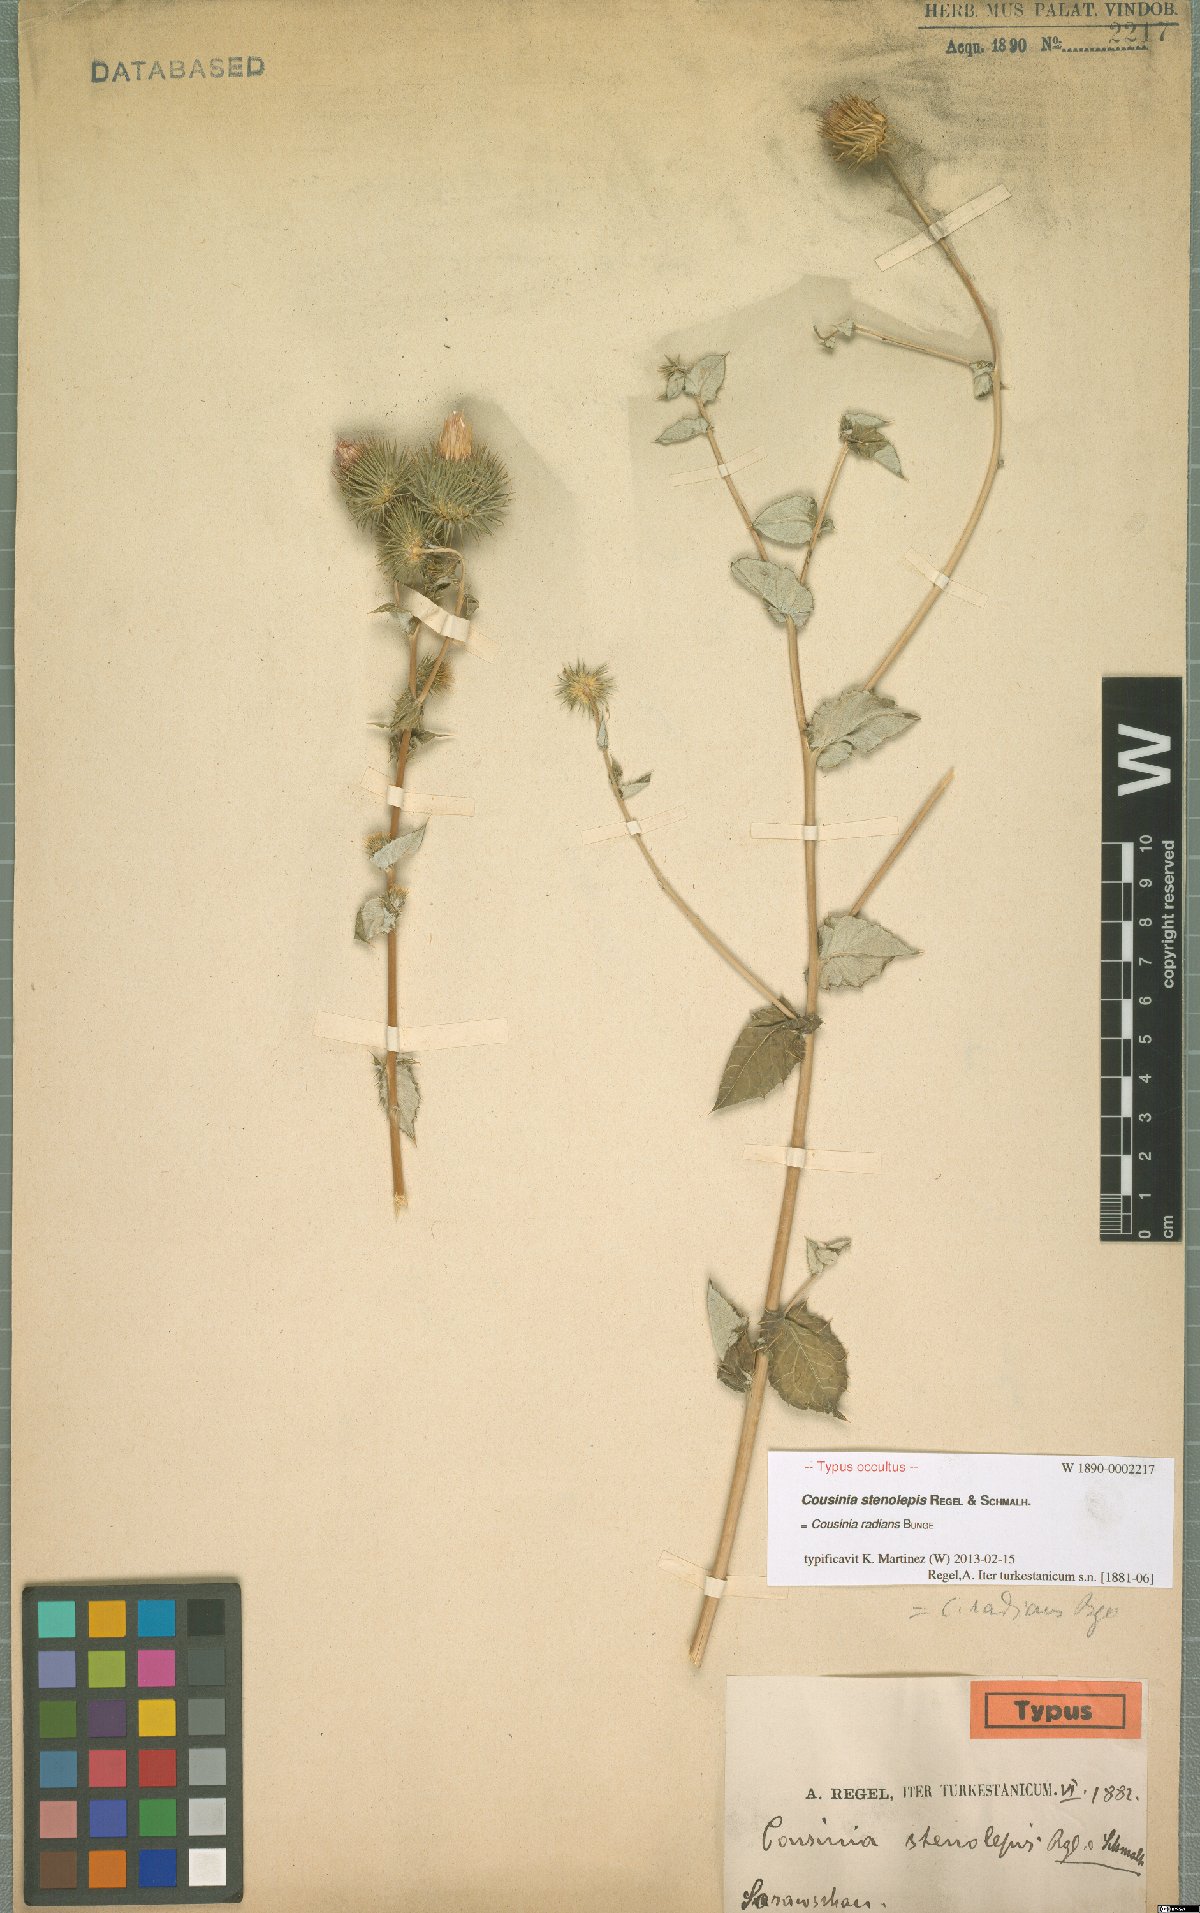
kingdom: Plantae
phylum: Tracheophyta
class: Magnoliopsida
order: Asterales
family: Asteraceae
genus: Cousinia
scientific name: Cousinia radians
